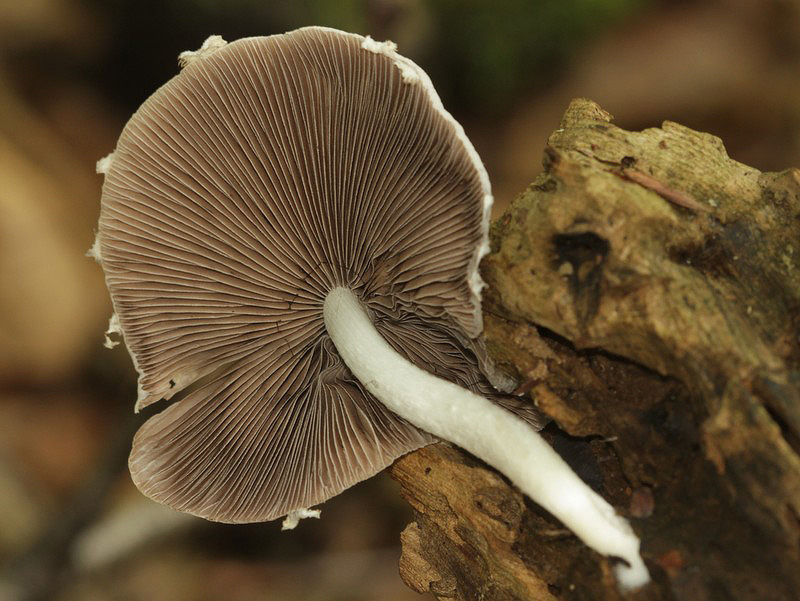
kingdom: Fungi
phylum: Basidiomycota
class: Agaricomycetes
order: Agaricales
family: Psathyrellaceae
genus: Candolleomyces
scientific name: Candolleomyces candolleanus
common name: Candolles mørkhat
